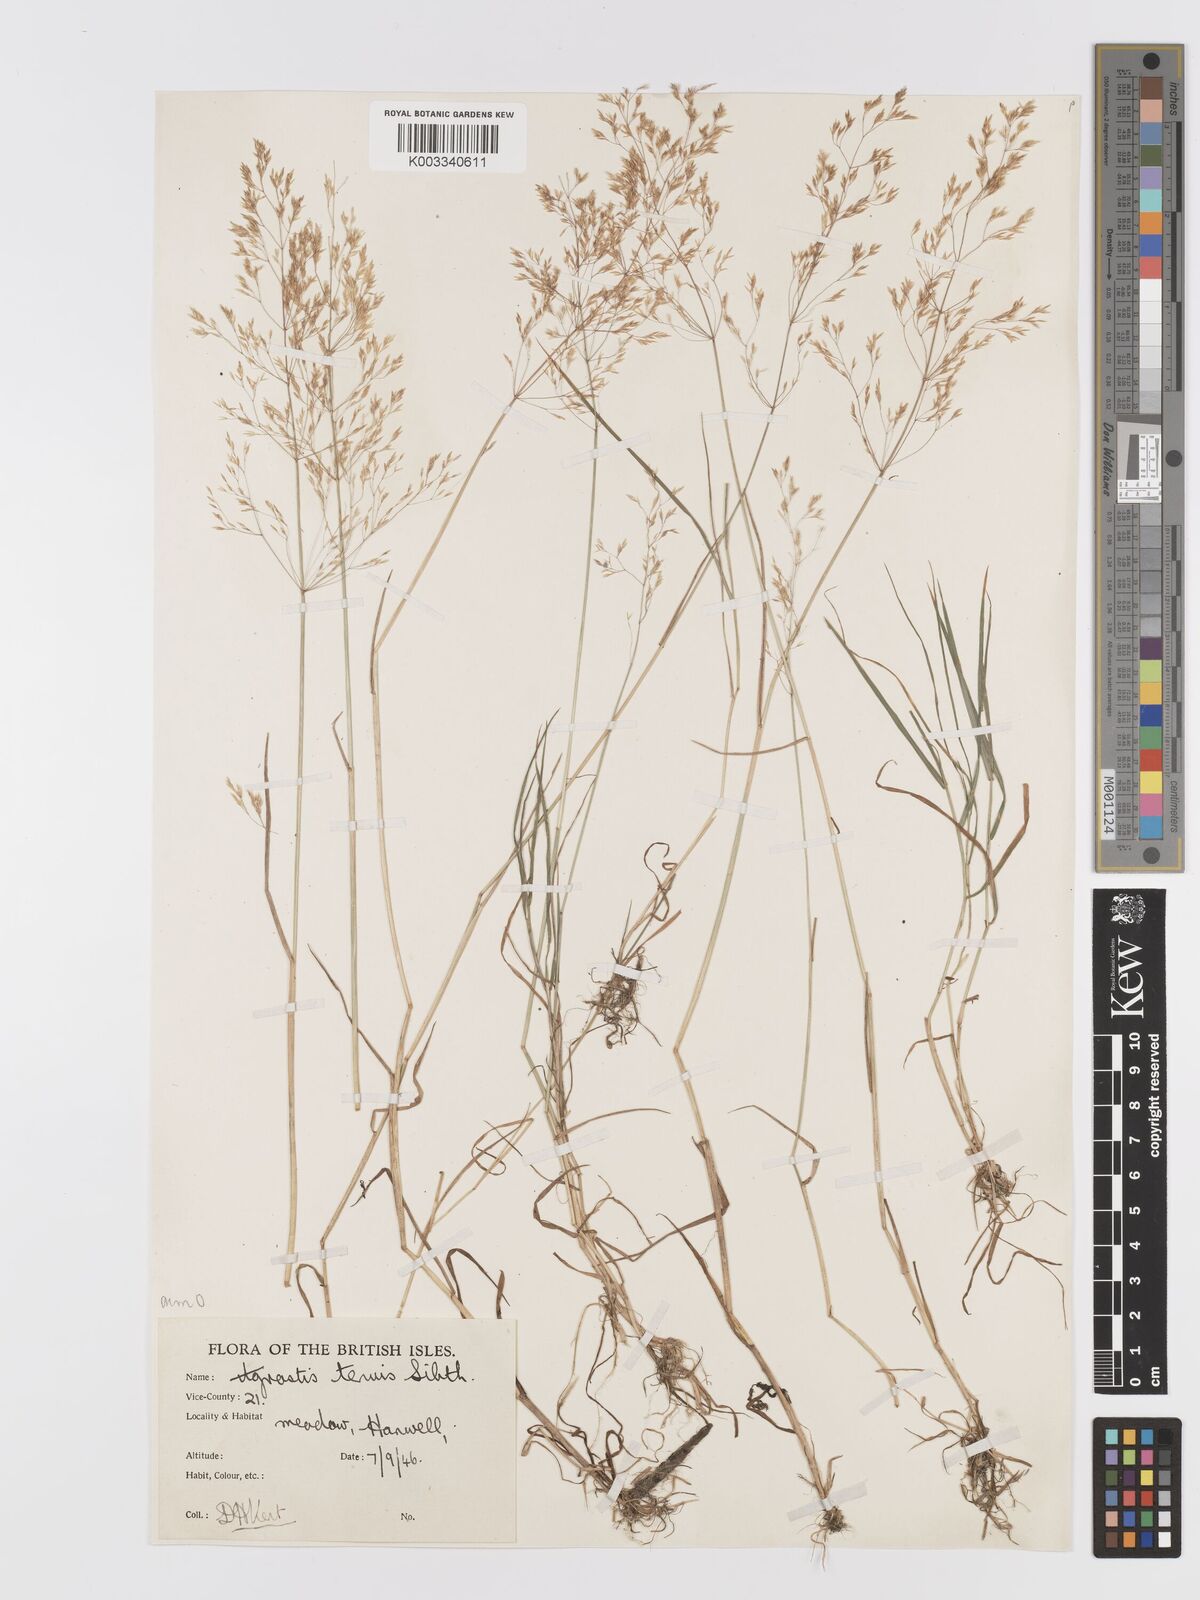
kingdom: Plantae
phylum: Tracheophyta
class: Liliopsida
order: Poales
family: Poaceae
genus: Agrostis
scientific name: Agrostis capillaris
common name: Colonial bentgrass
